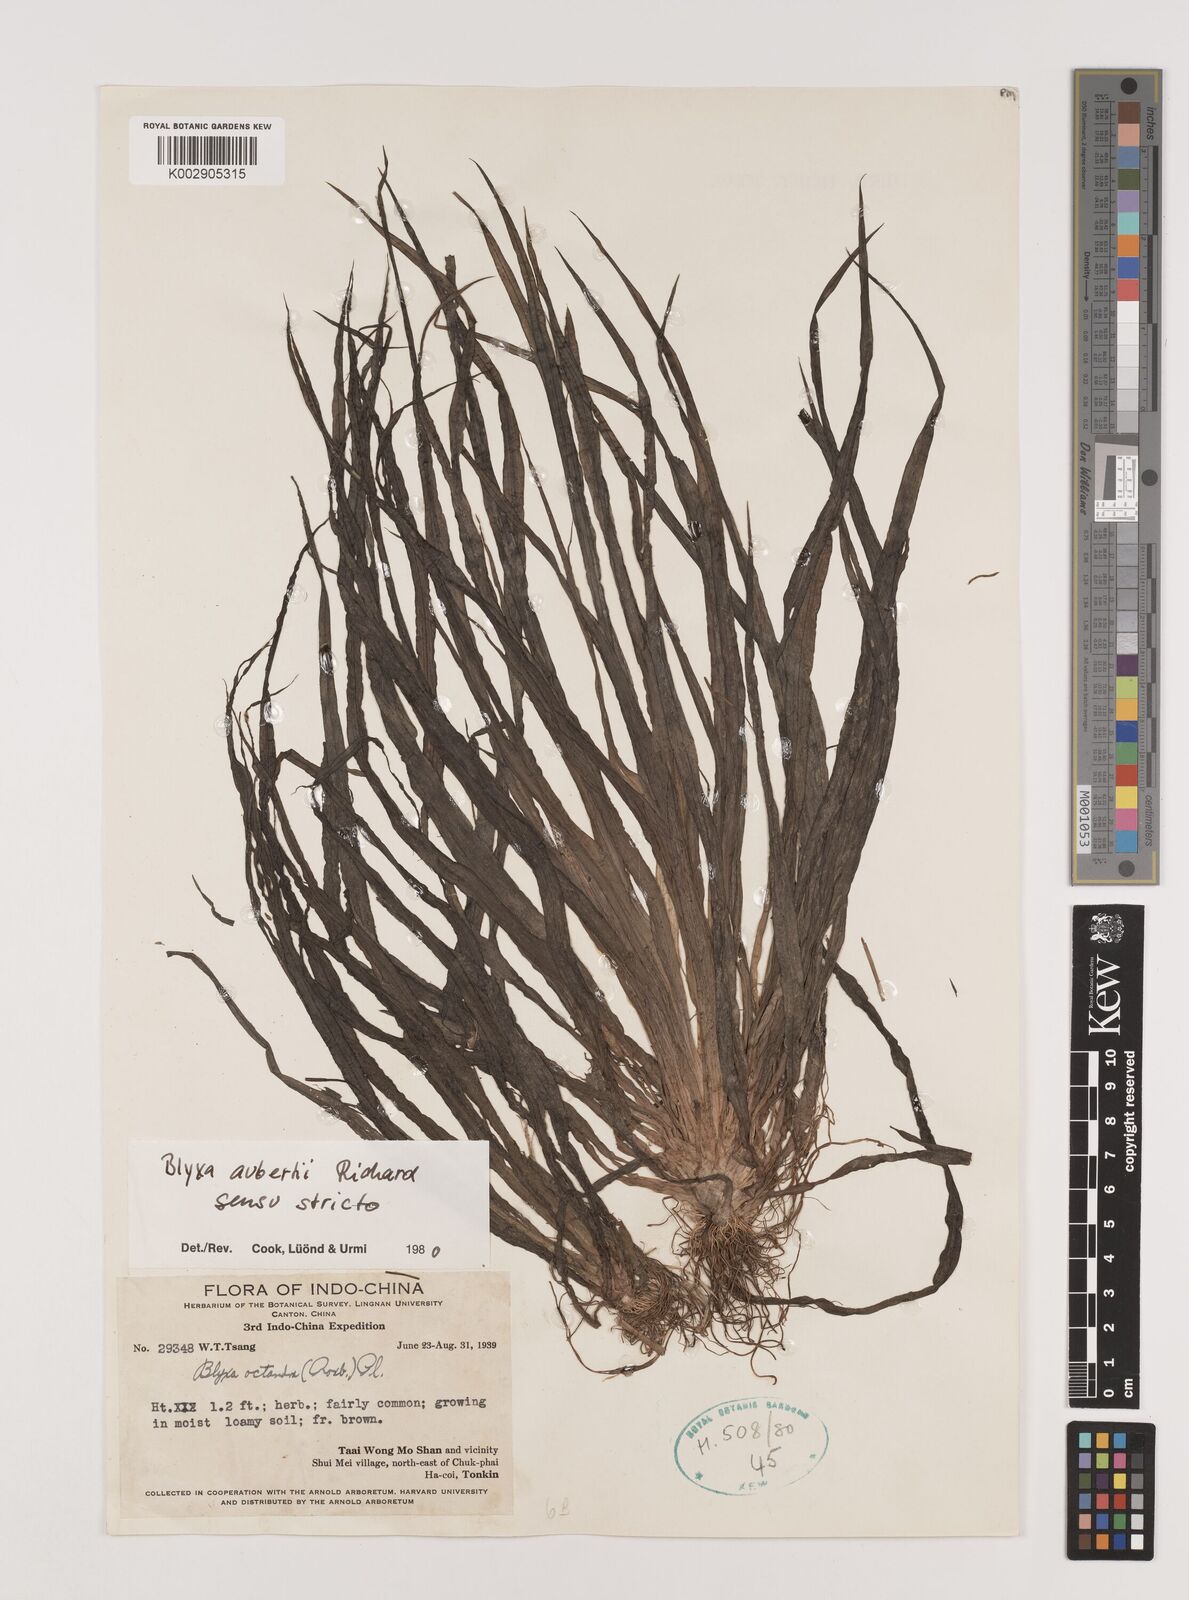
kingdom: Plantae
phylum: Tracheophyta
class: Liliopsida
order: Alismatales
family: Hydrocharitaceae
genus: Blyxa
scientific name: Blyxa aubertii
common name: Roundfruit blyxa
